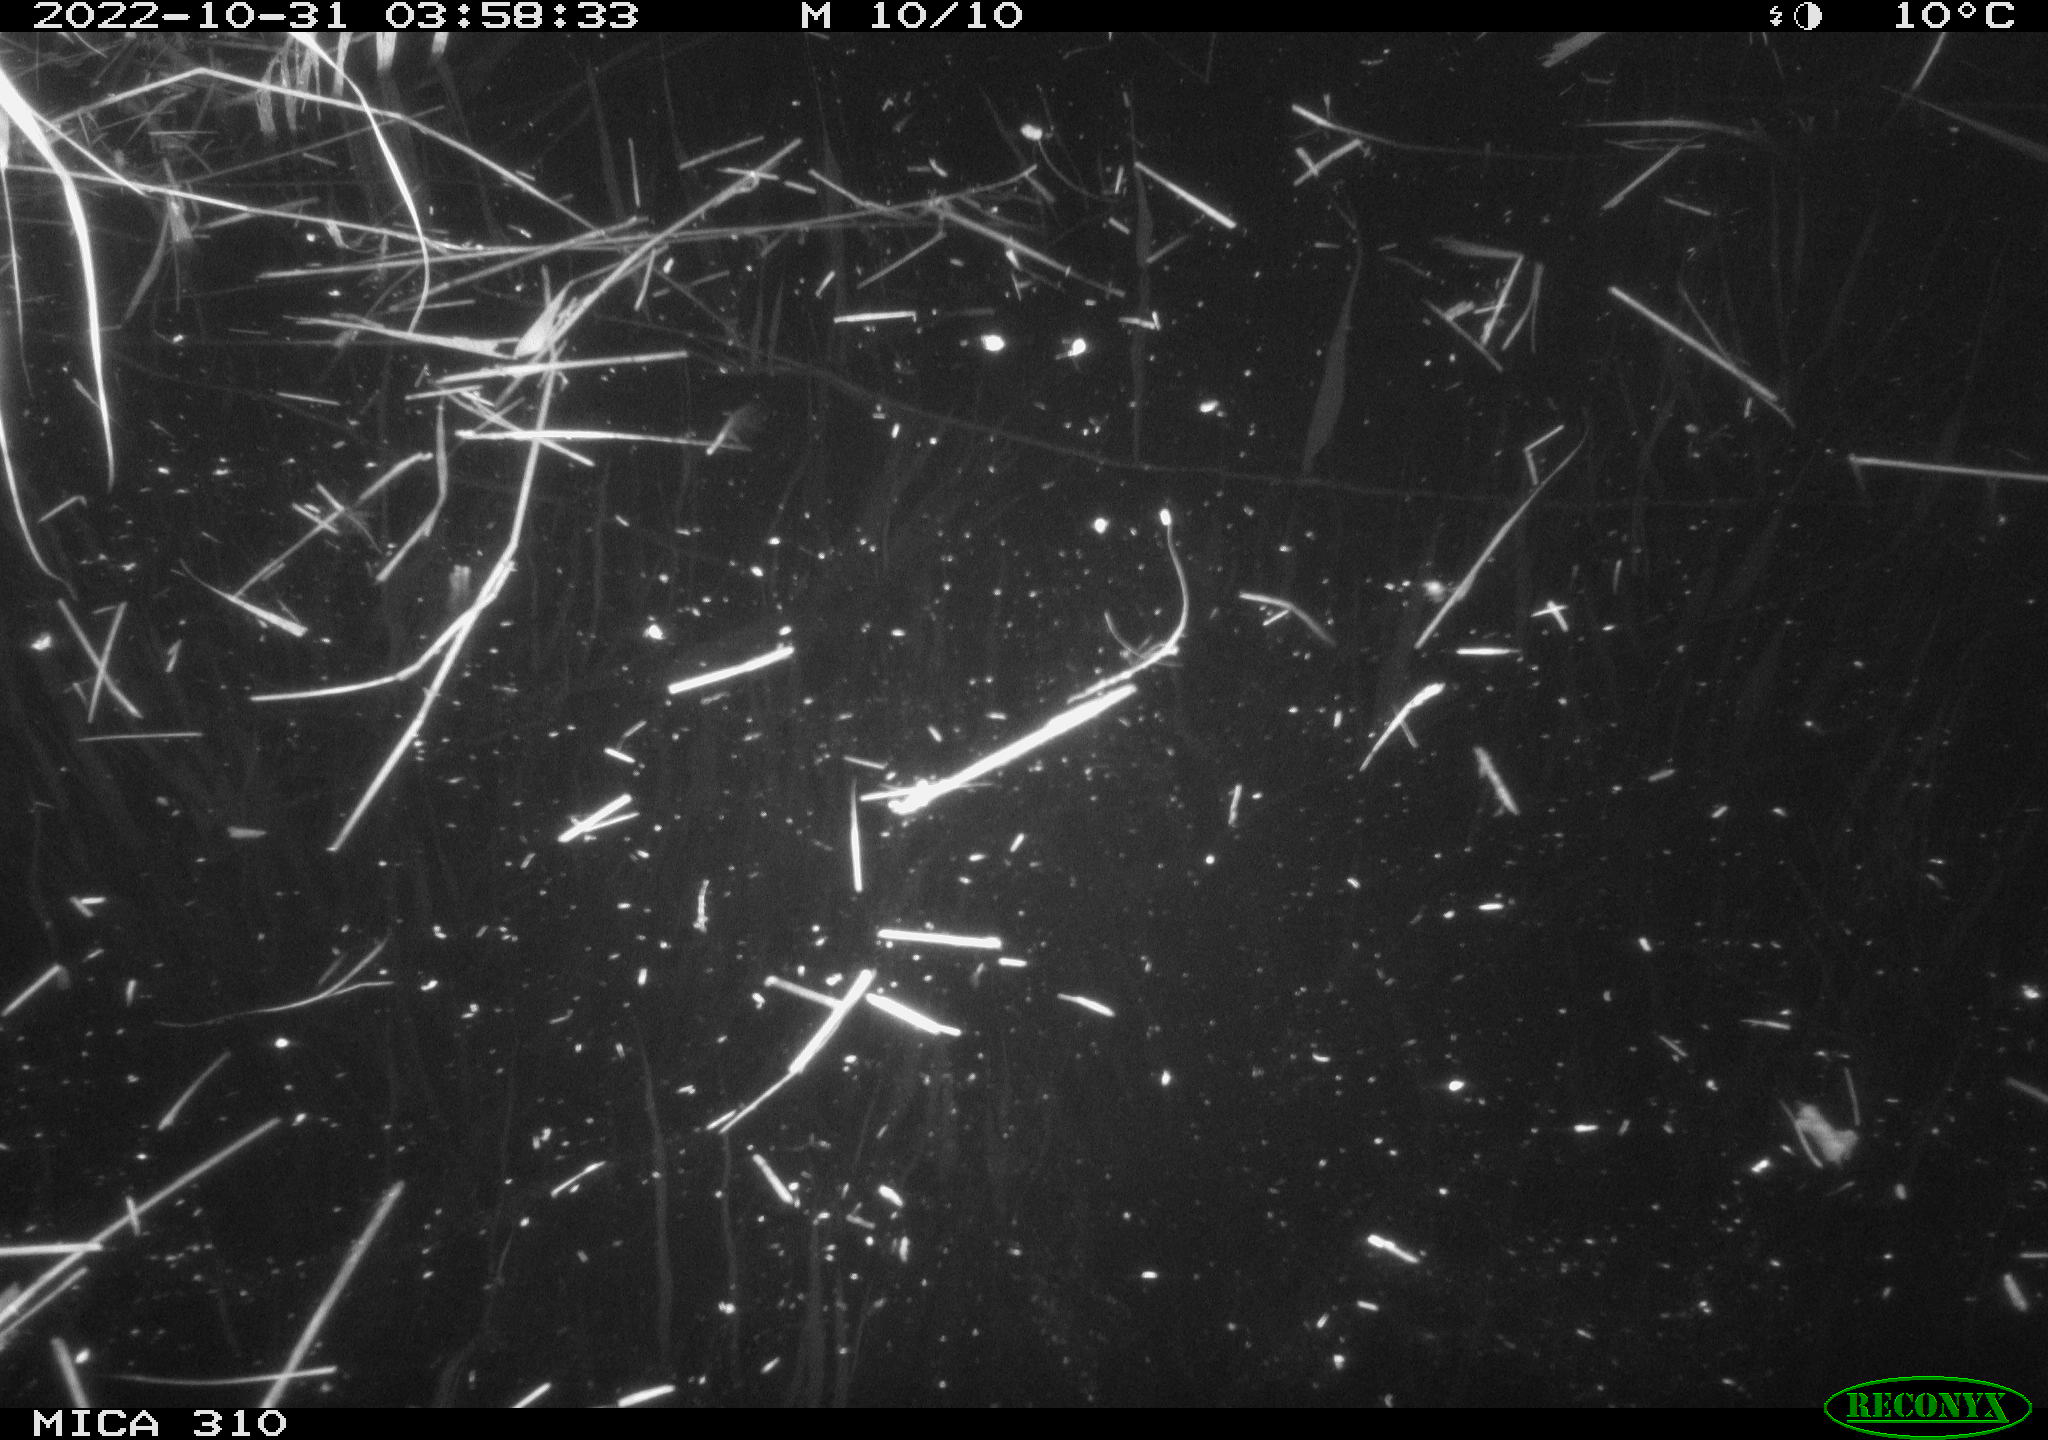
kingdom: Animalia
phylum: Chordata
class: Mammalia
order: Rodentia
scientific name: Rodentia
